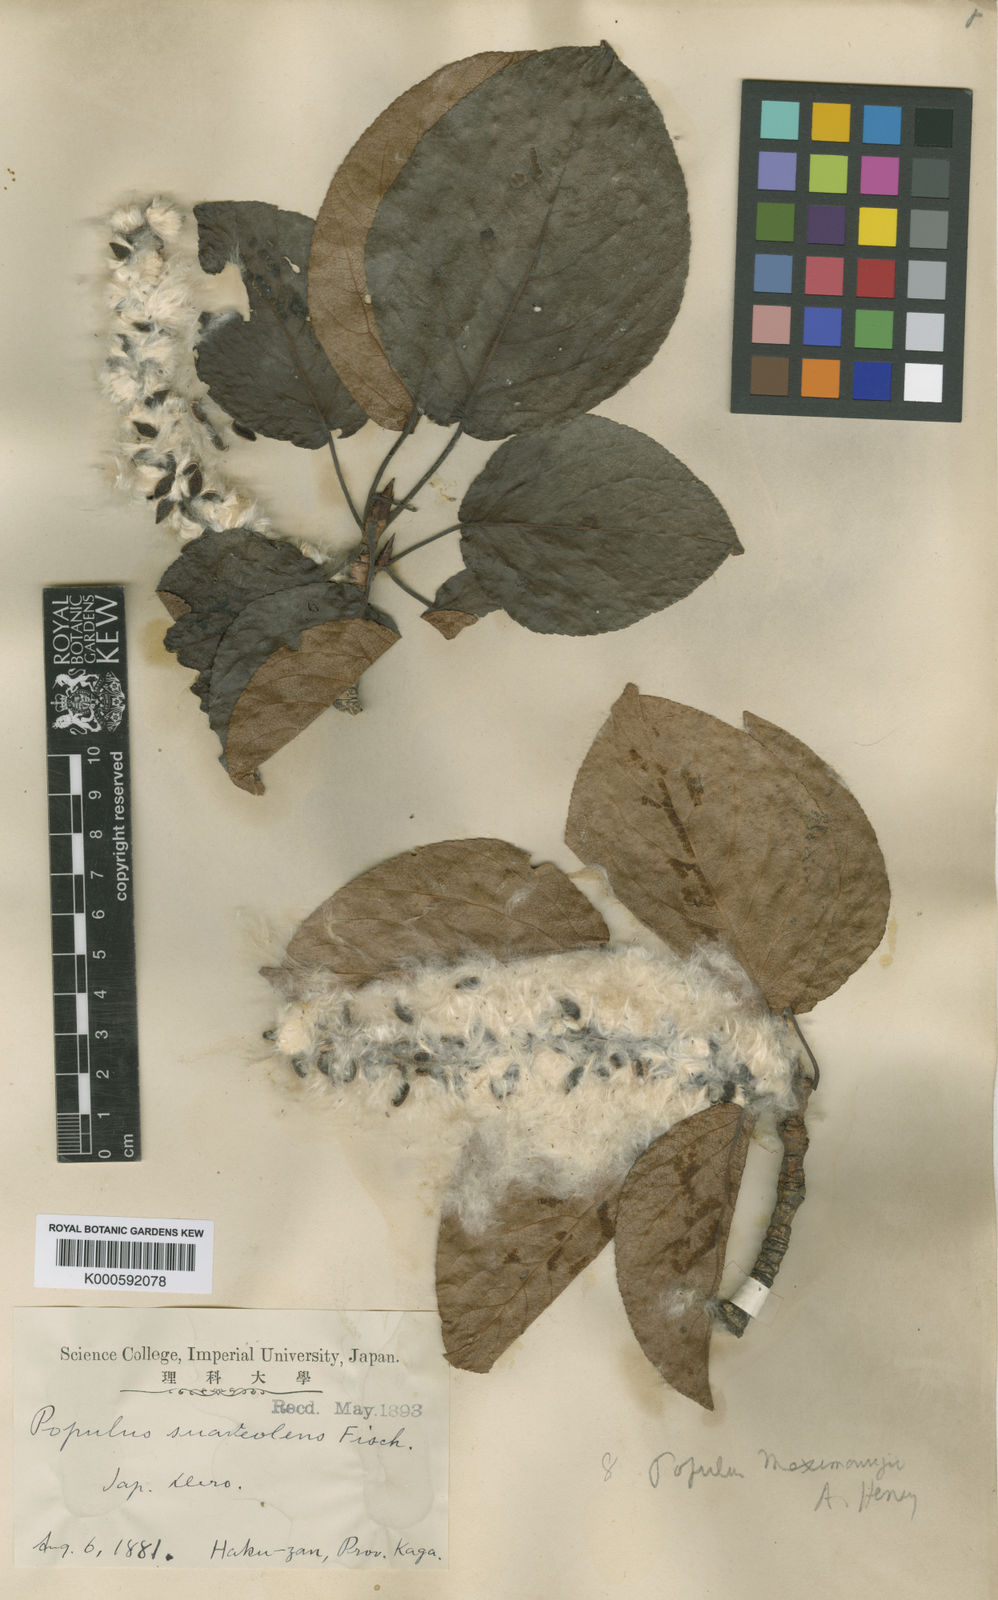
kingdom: Plantae
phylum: Tracheophyta
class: Magnoliopsida
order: Malpighiales
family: Salicaceae
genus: Populus
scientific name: Populus suaveolens
